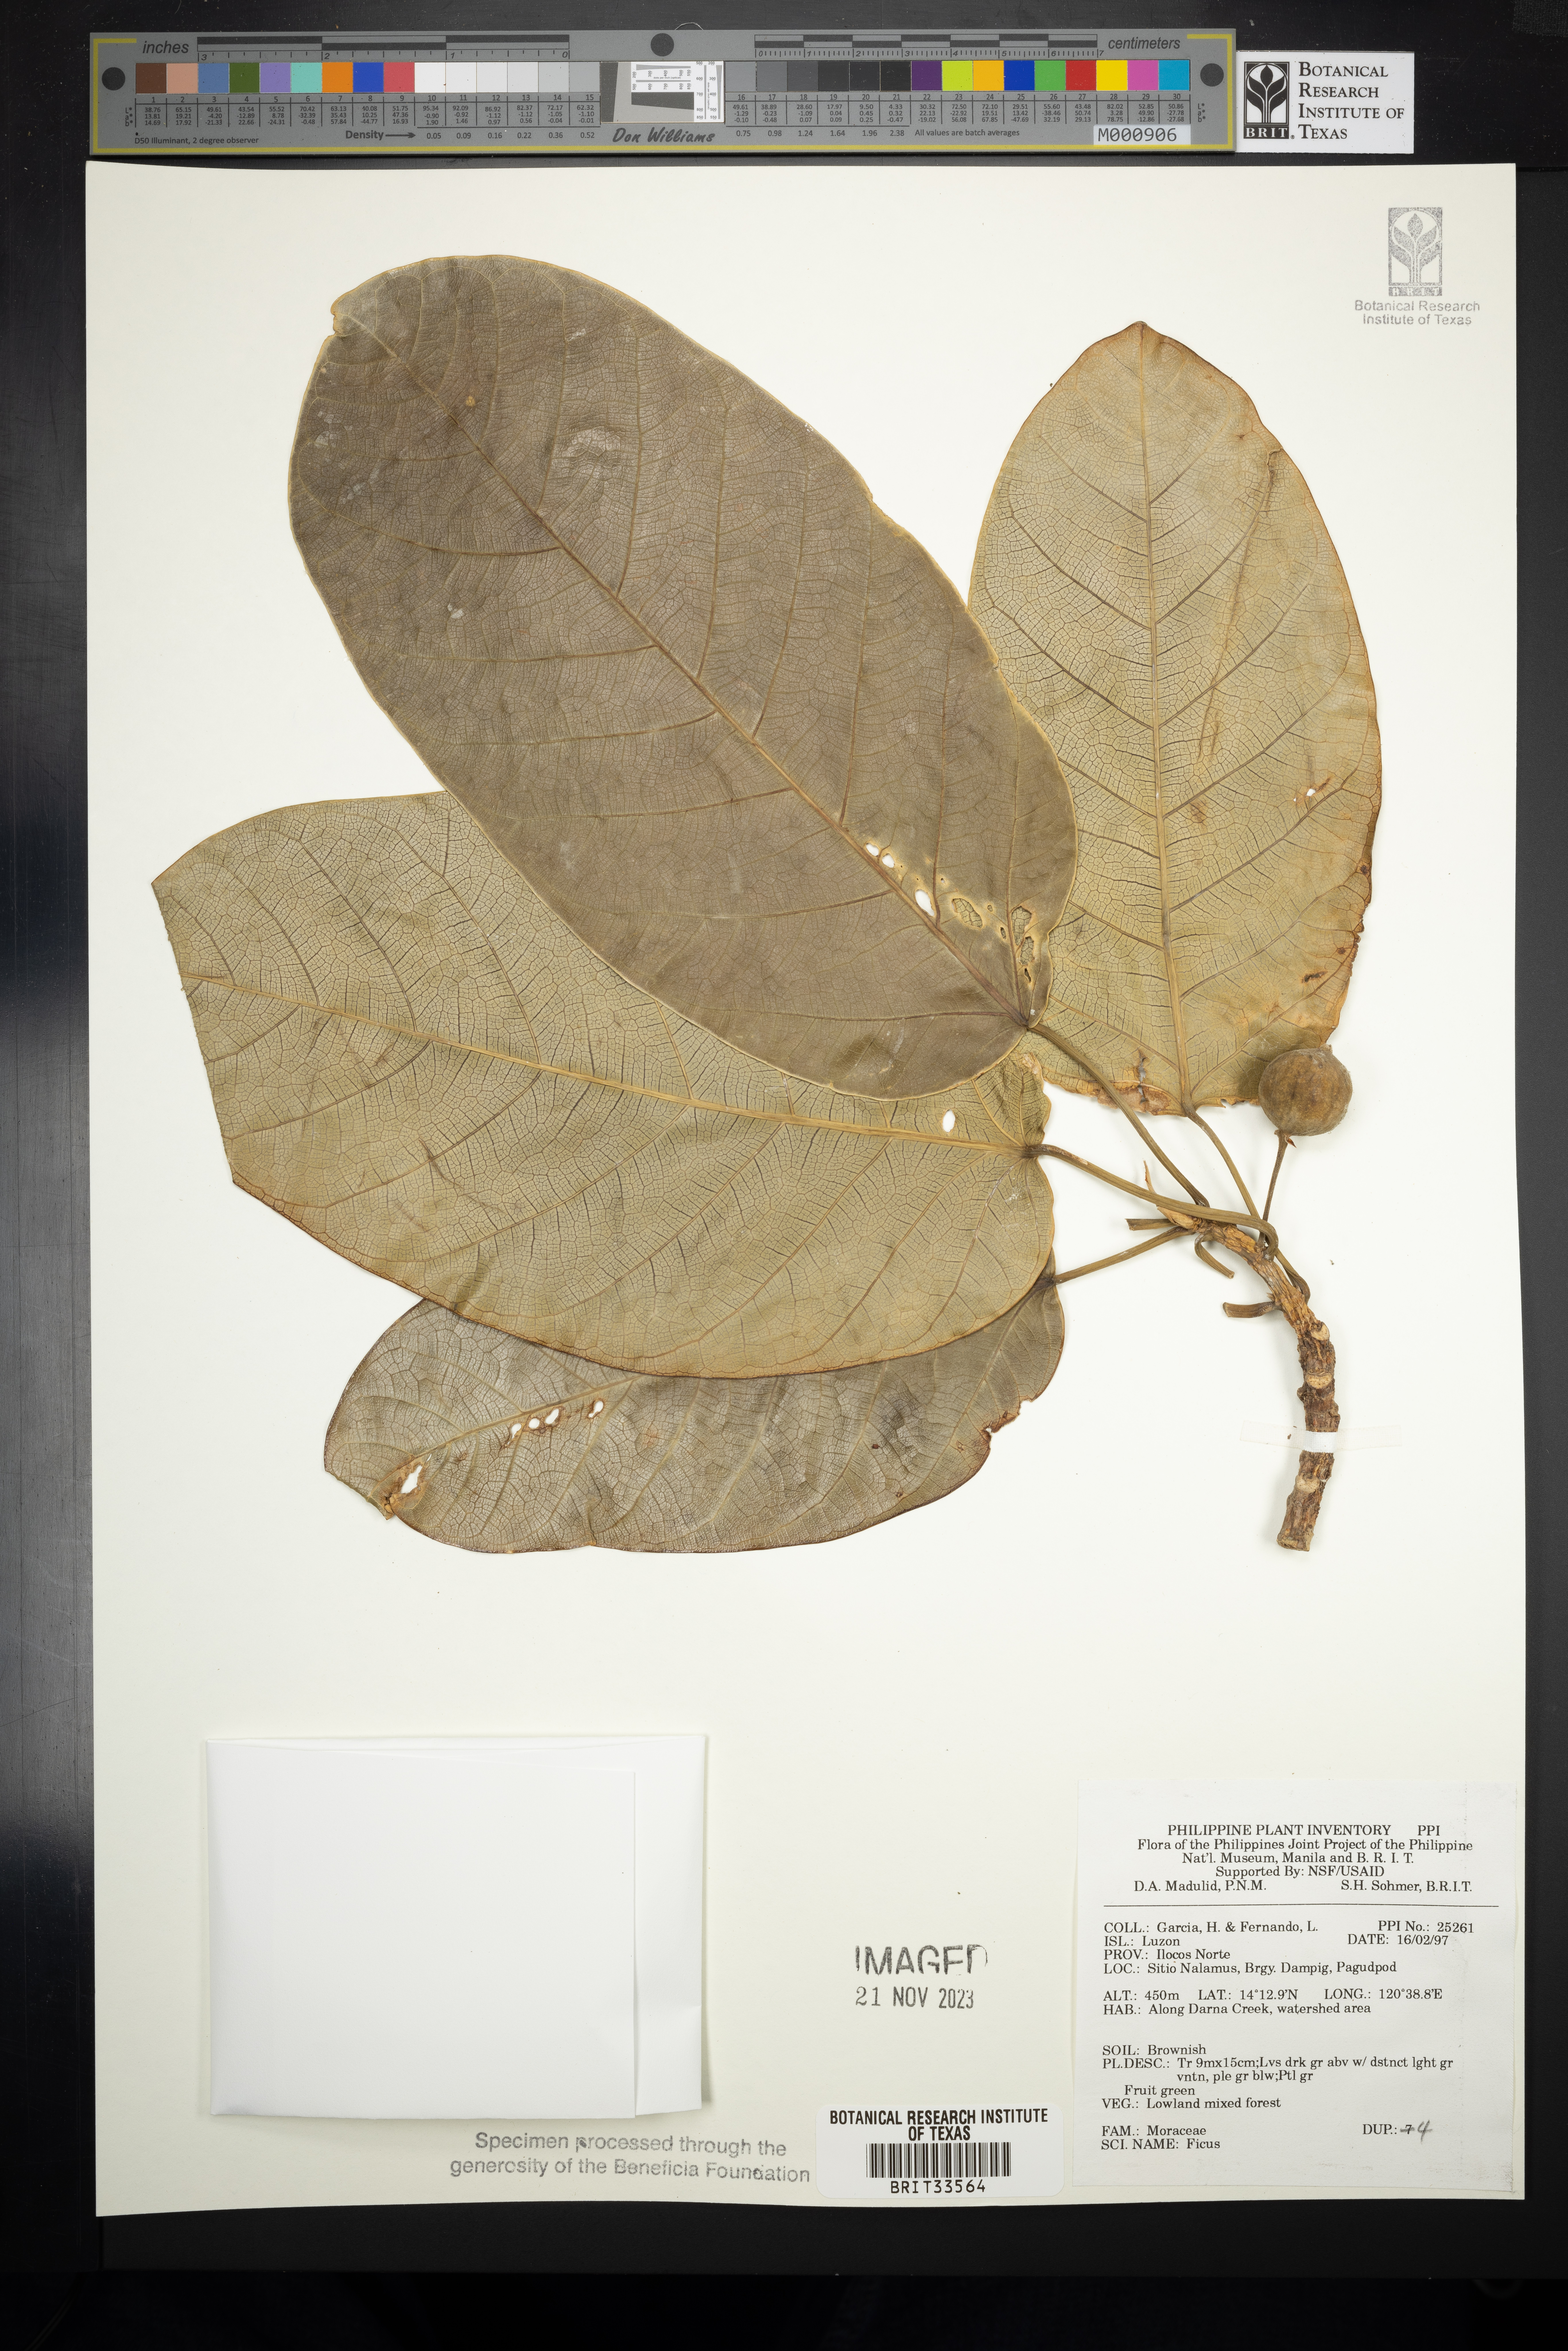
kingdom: Plantae
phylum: Tracheophyta
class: Magnoliopsida
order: Rosales
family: Moraceae
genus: Ficus
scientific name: Ficus
